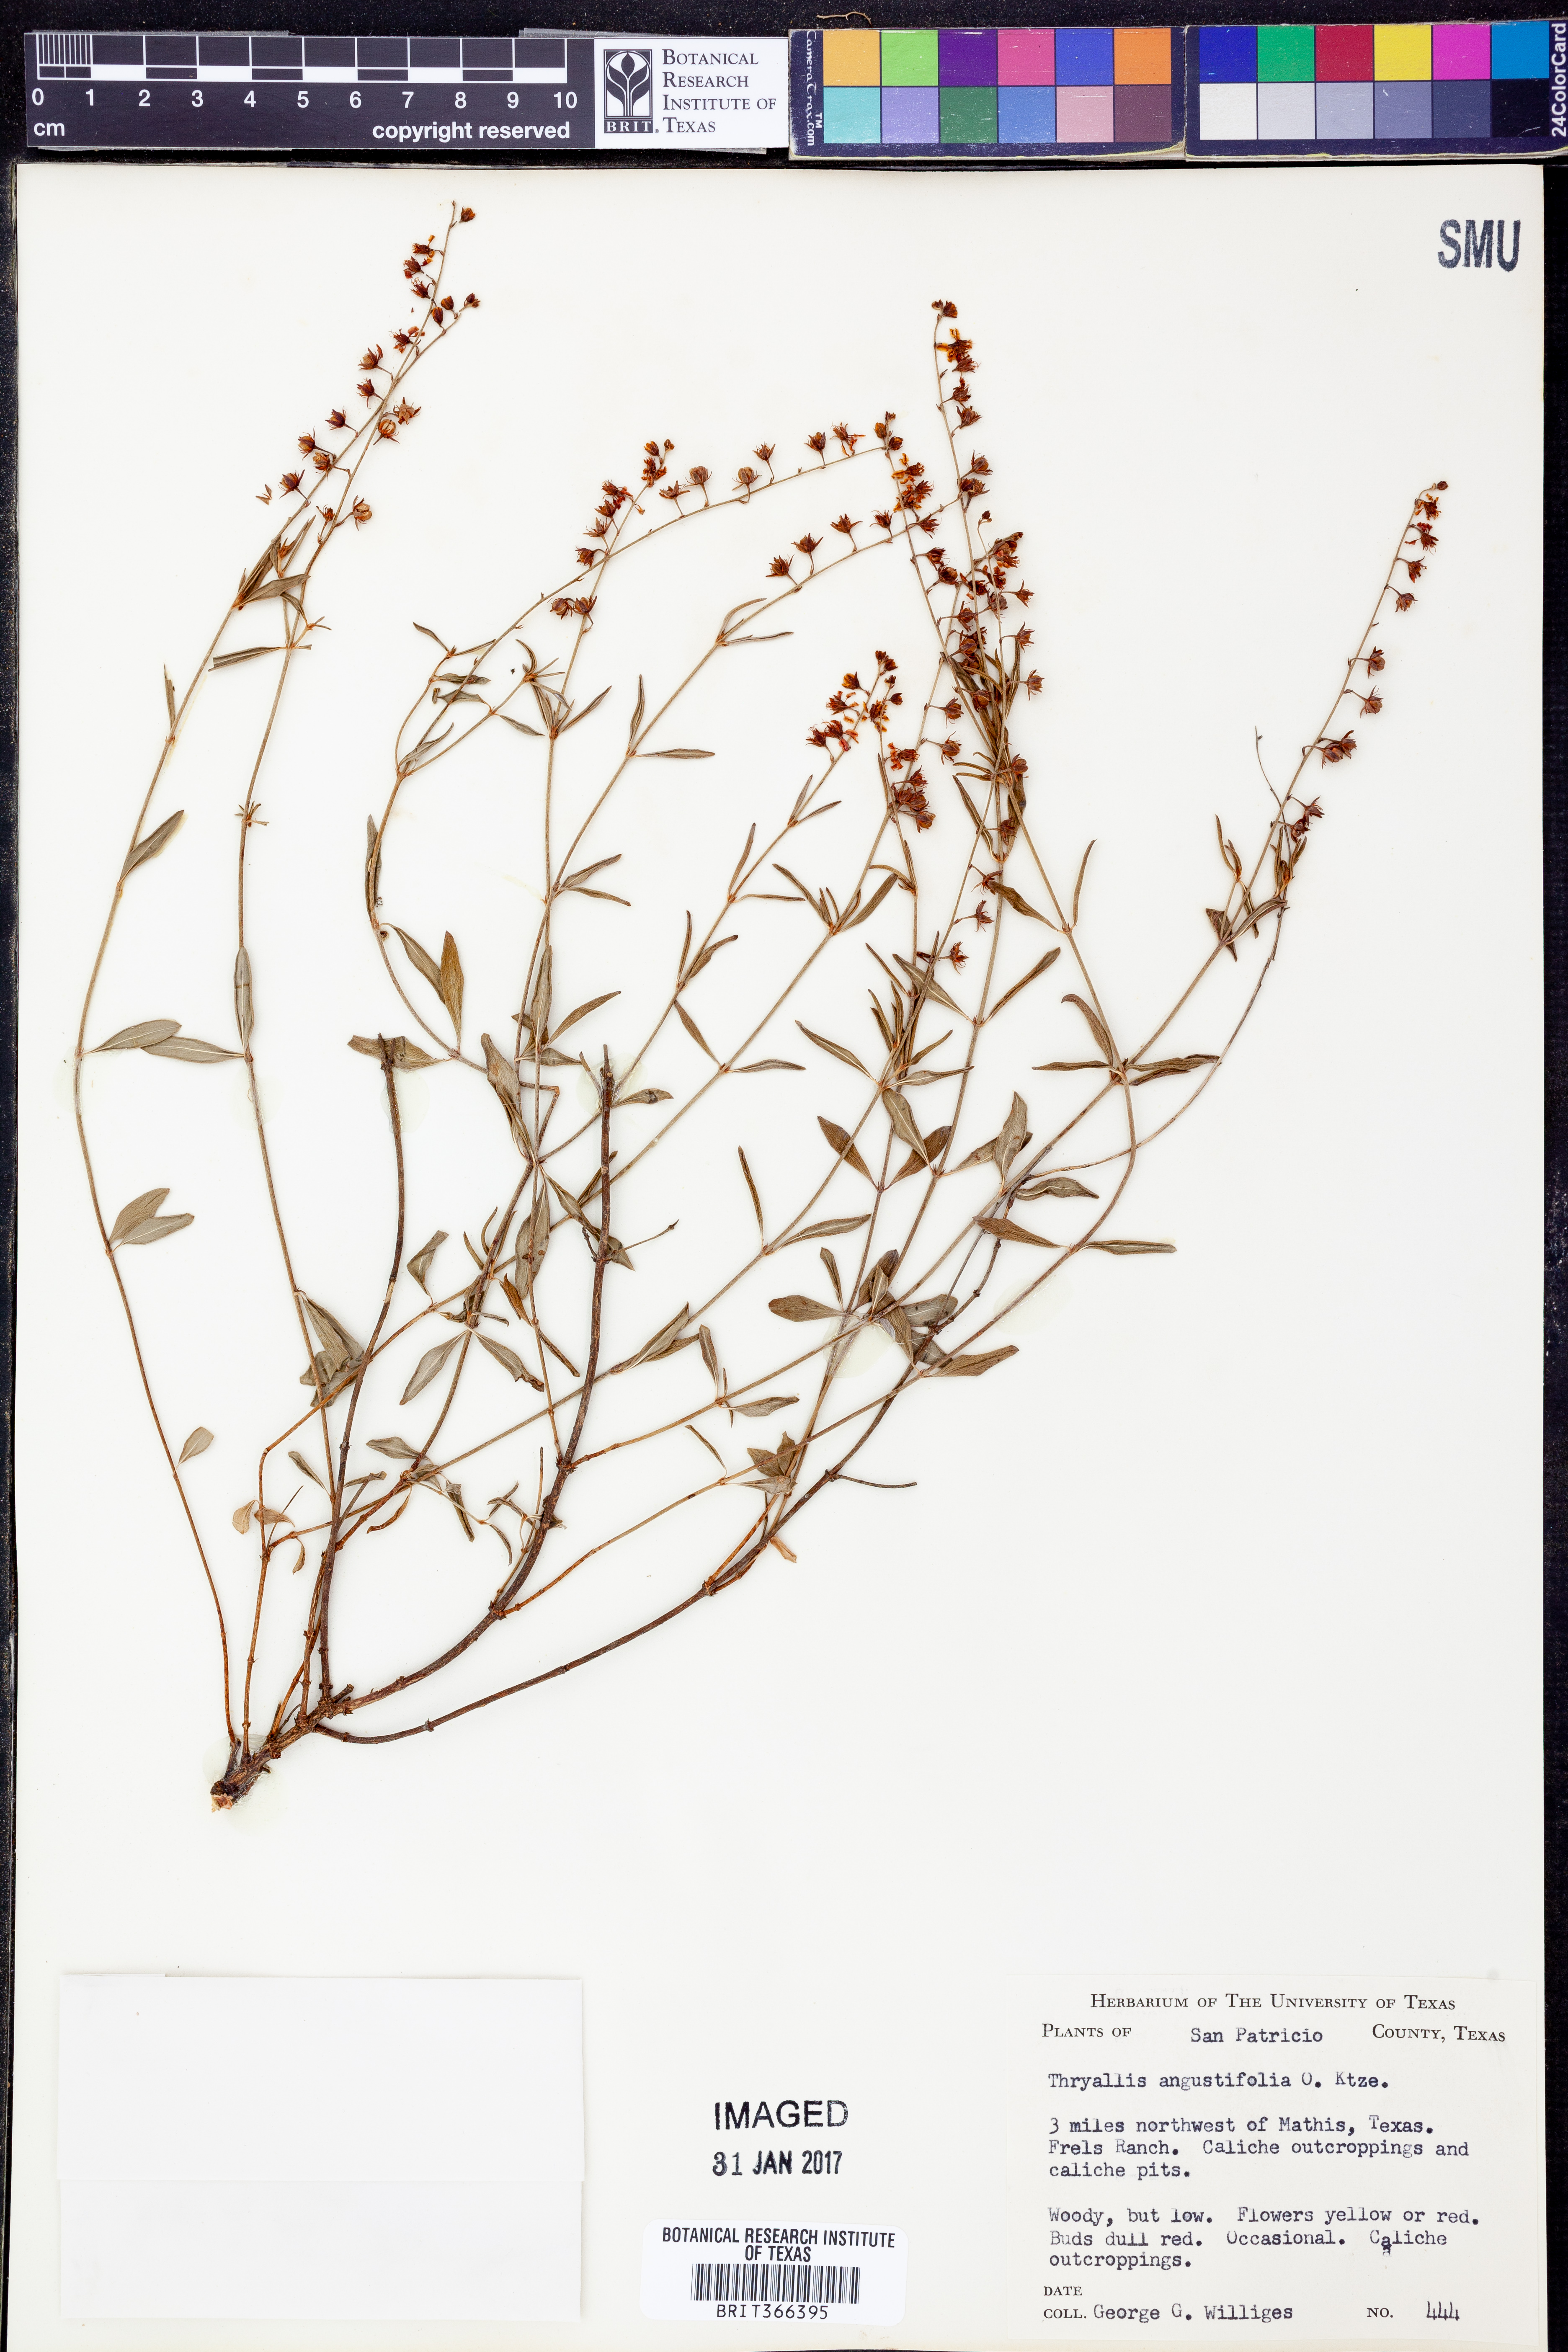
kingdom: Plantae
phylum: Tracheophyta
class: Magnoliopsida
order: Malpighiales
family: Malpighiaceae
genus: Galphimia
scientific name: Galphimia angustifolia
